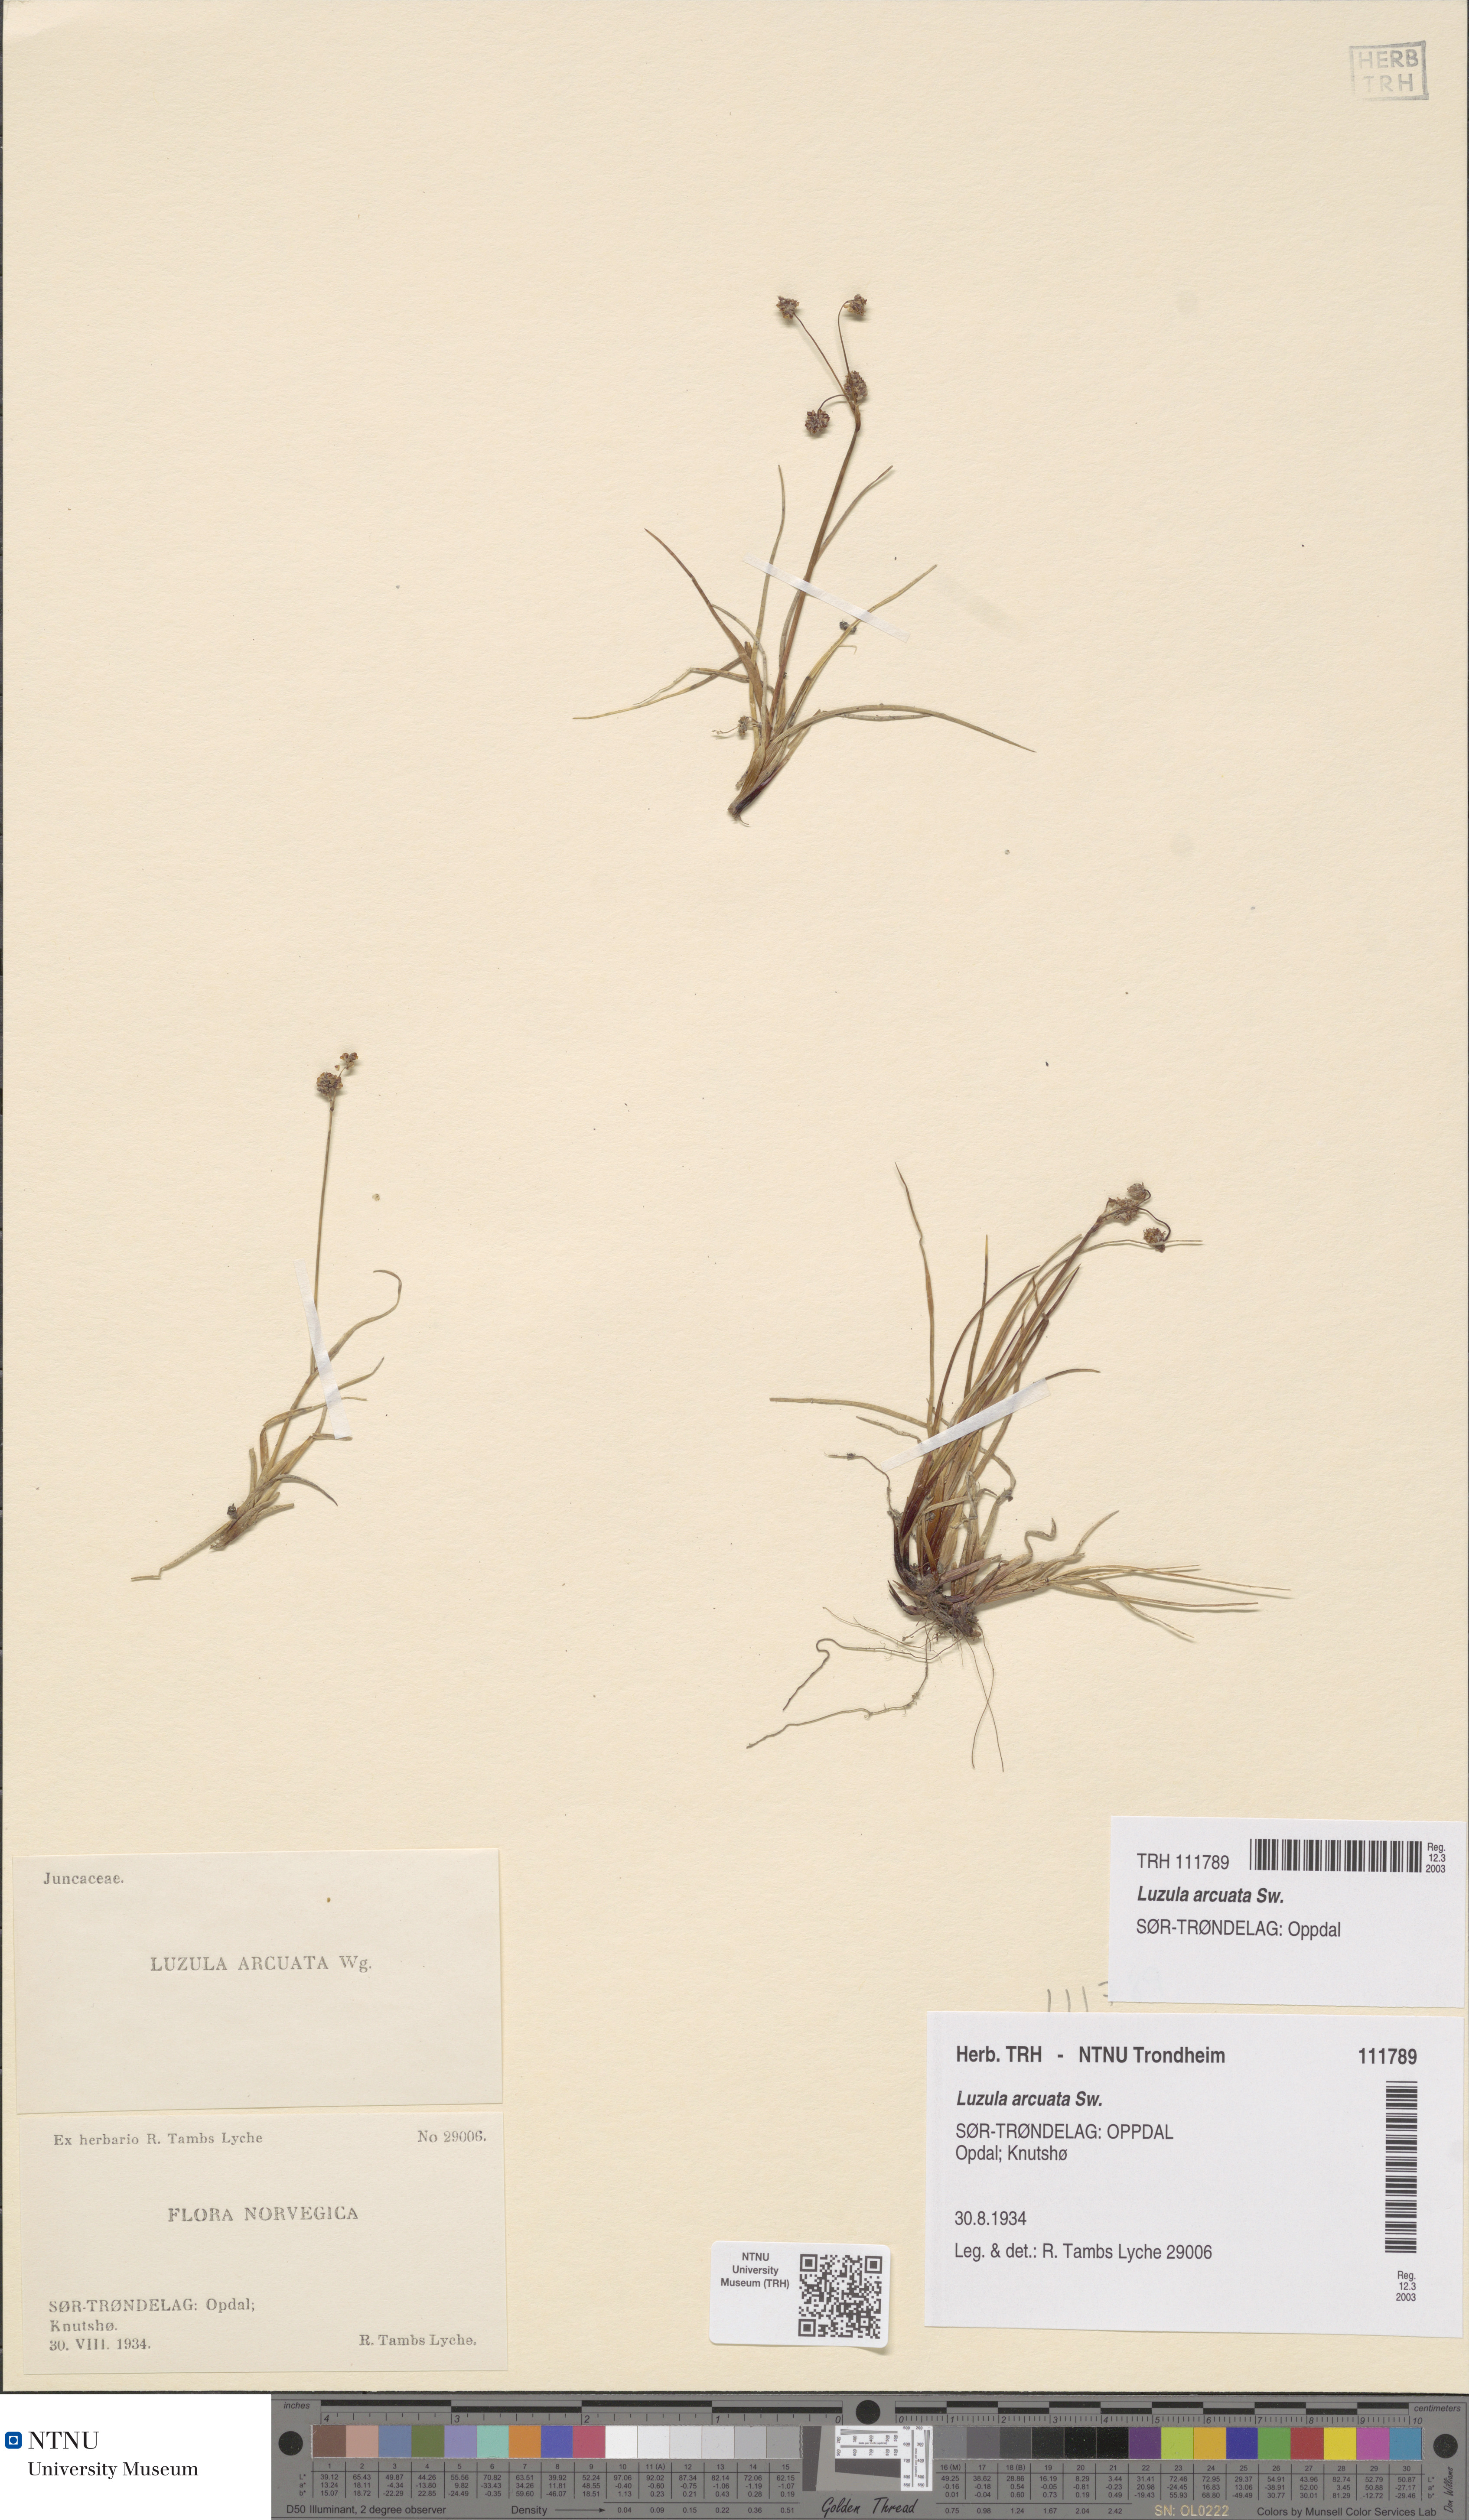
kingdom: Plantae
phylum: Tracheophyta
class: Liliopsida
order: Poales
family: Juncaceae
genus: Luzula
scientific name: Luzula arcuata
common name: Curved wood-rush
